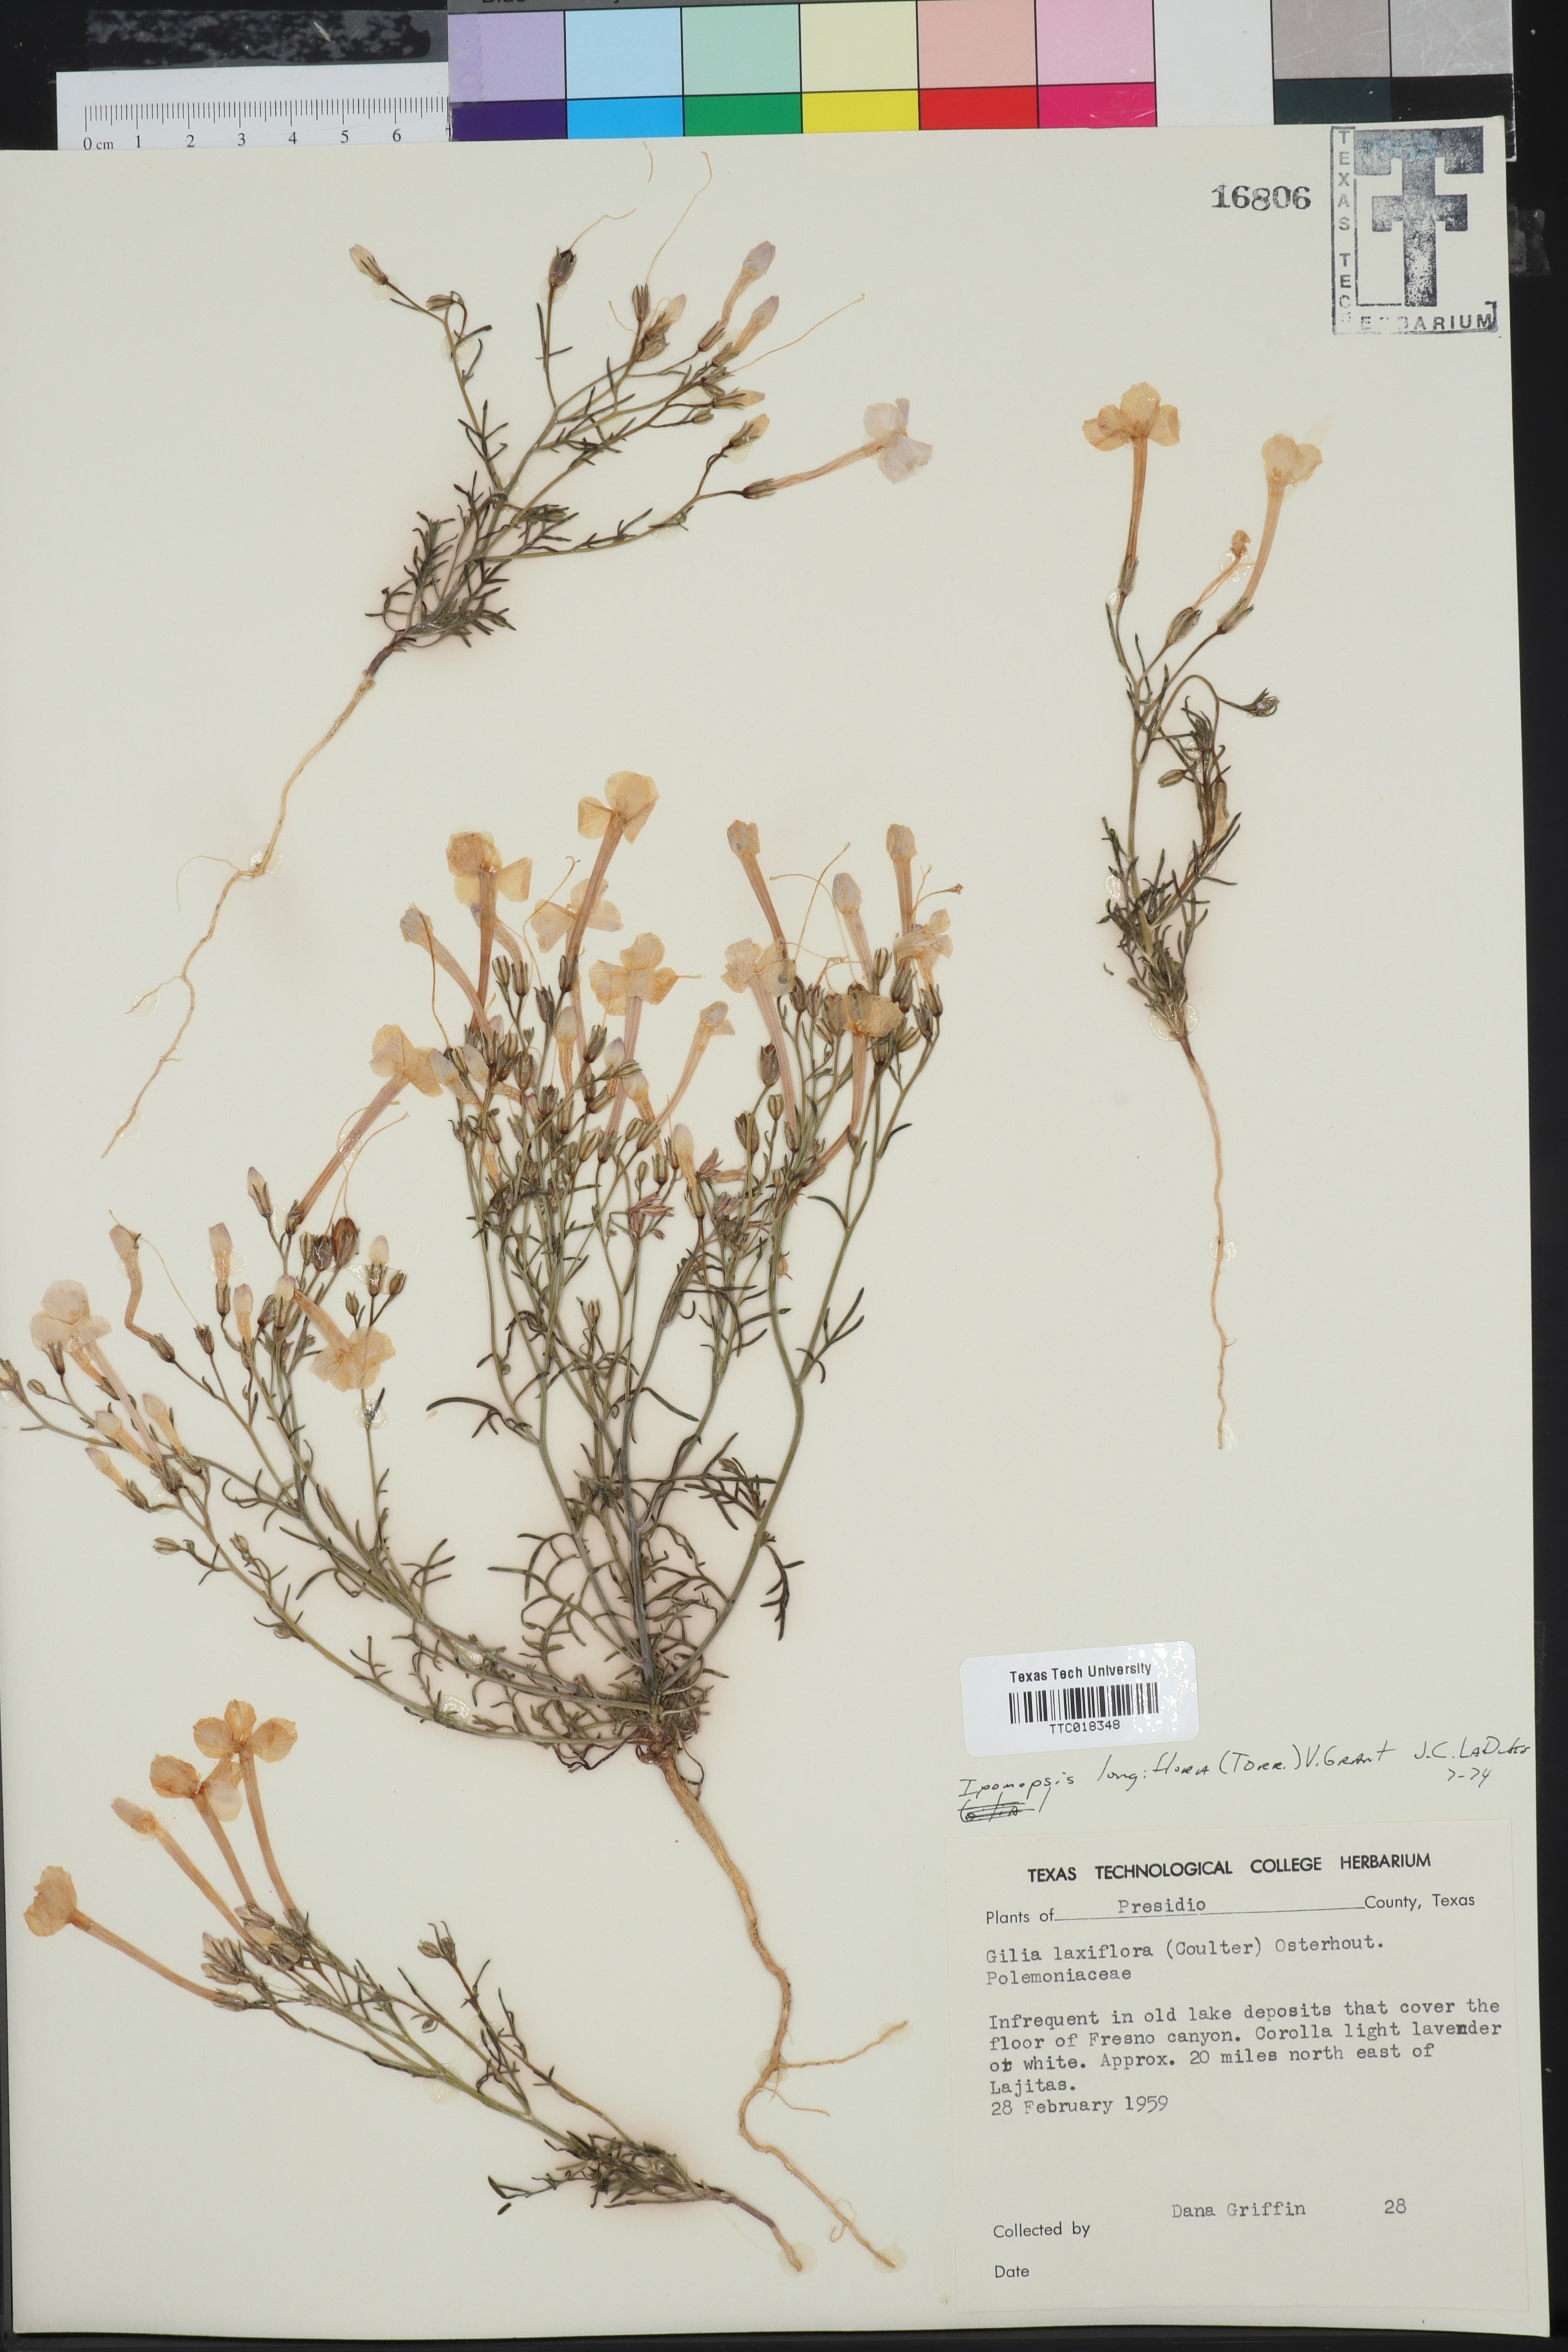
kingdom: Plantae
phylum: Tracheophyta
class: Magnoliopsida
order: Ericales
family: Polemoniaceae
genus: Ipomopsis
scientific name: Ipomopsis longiflora
